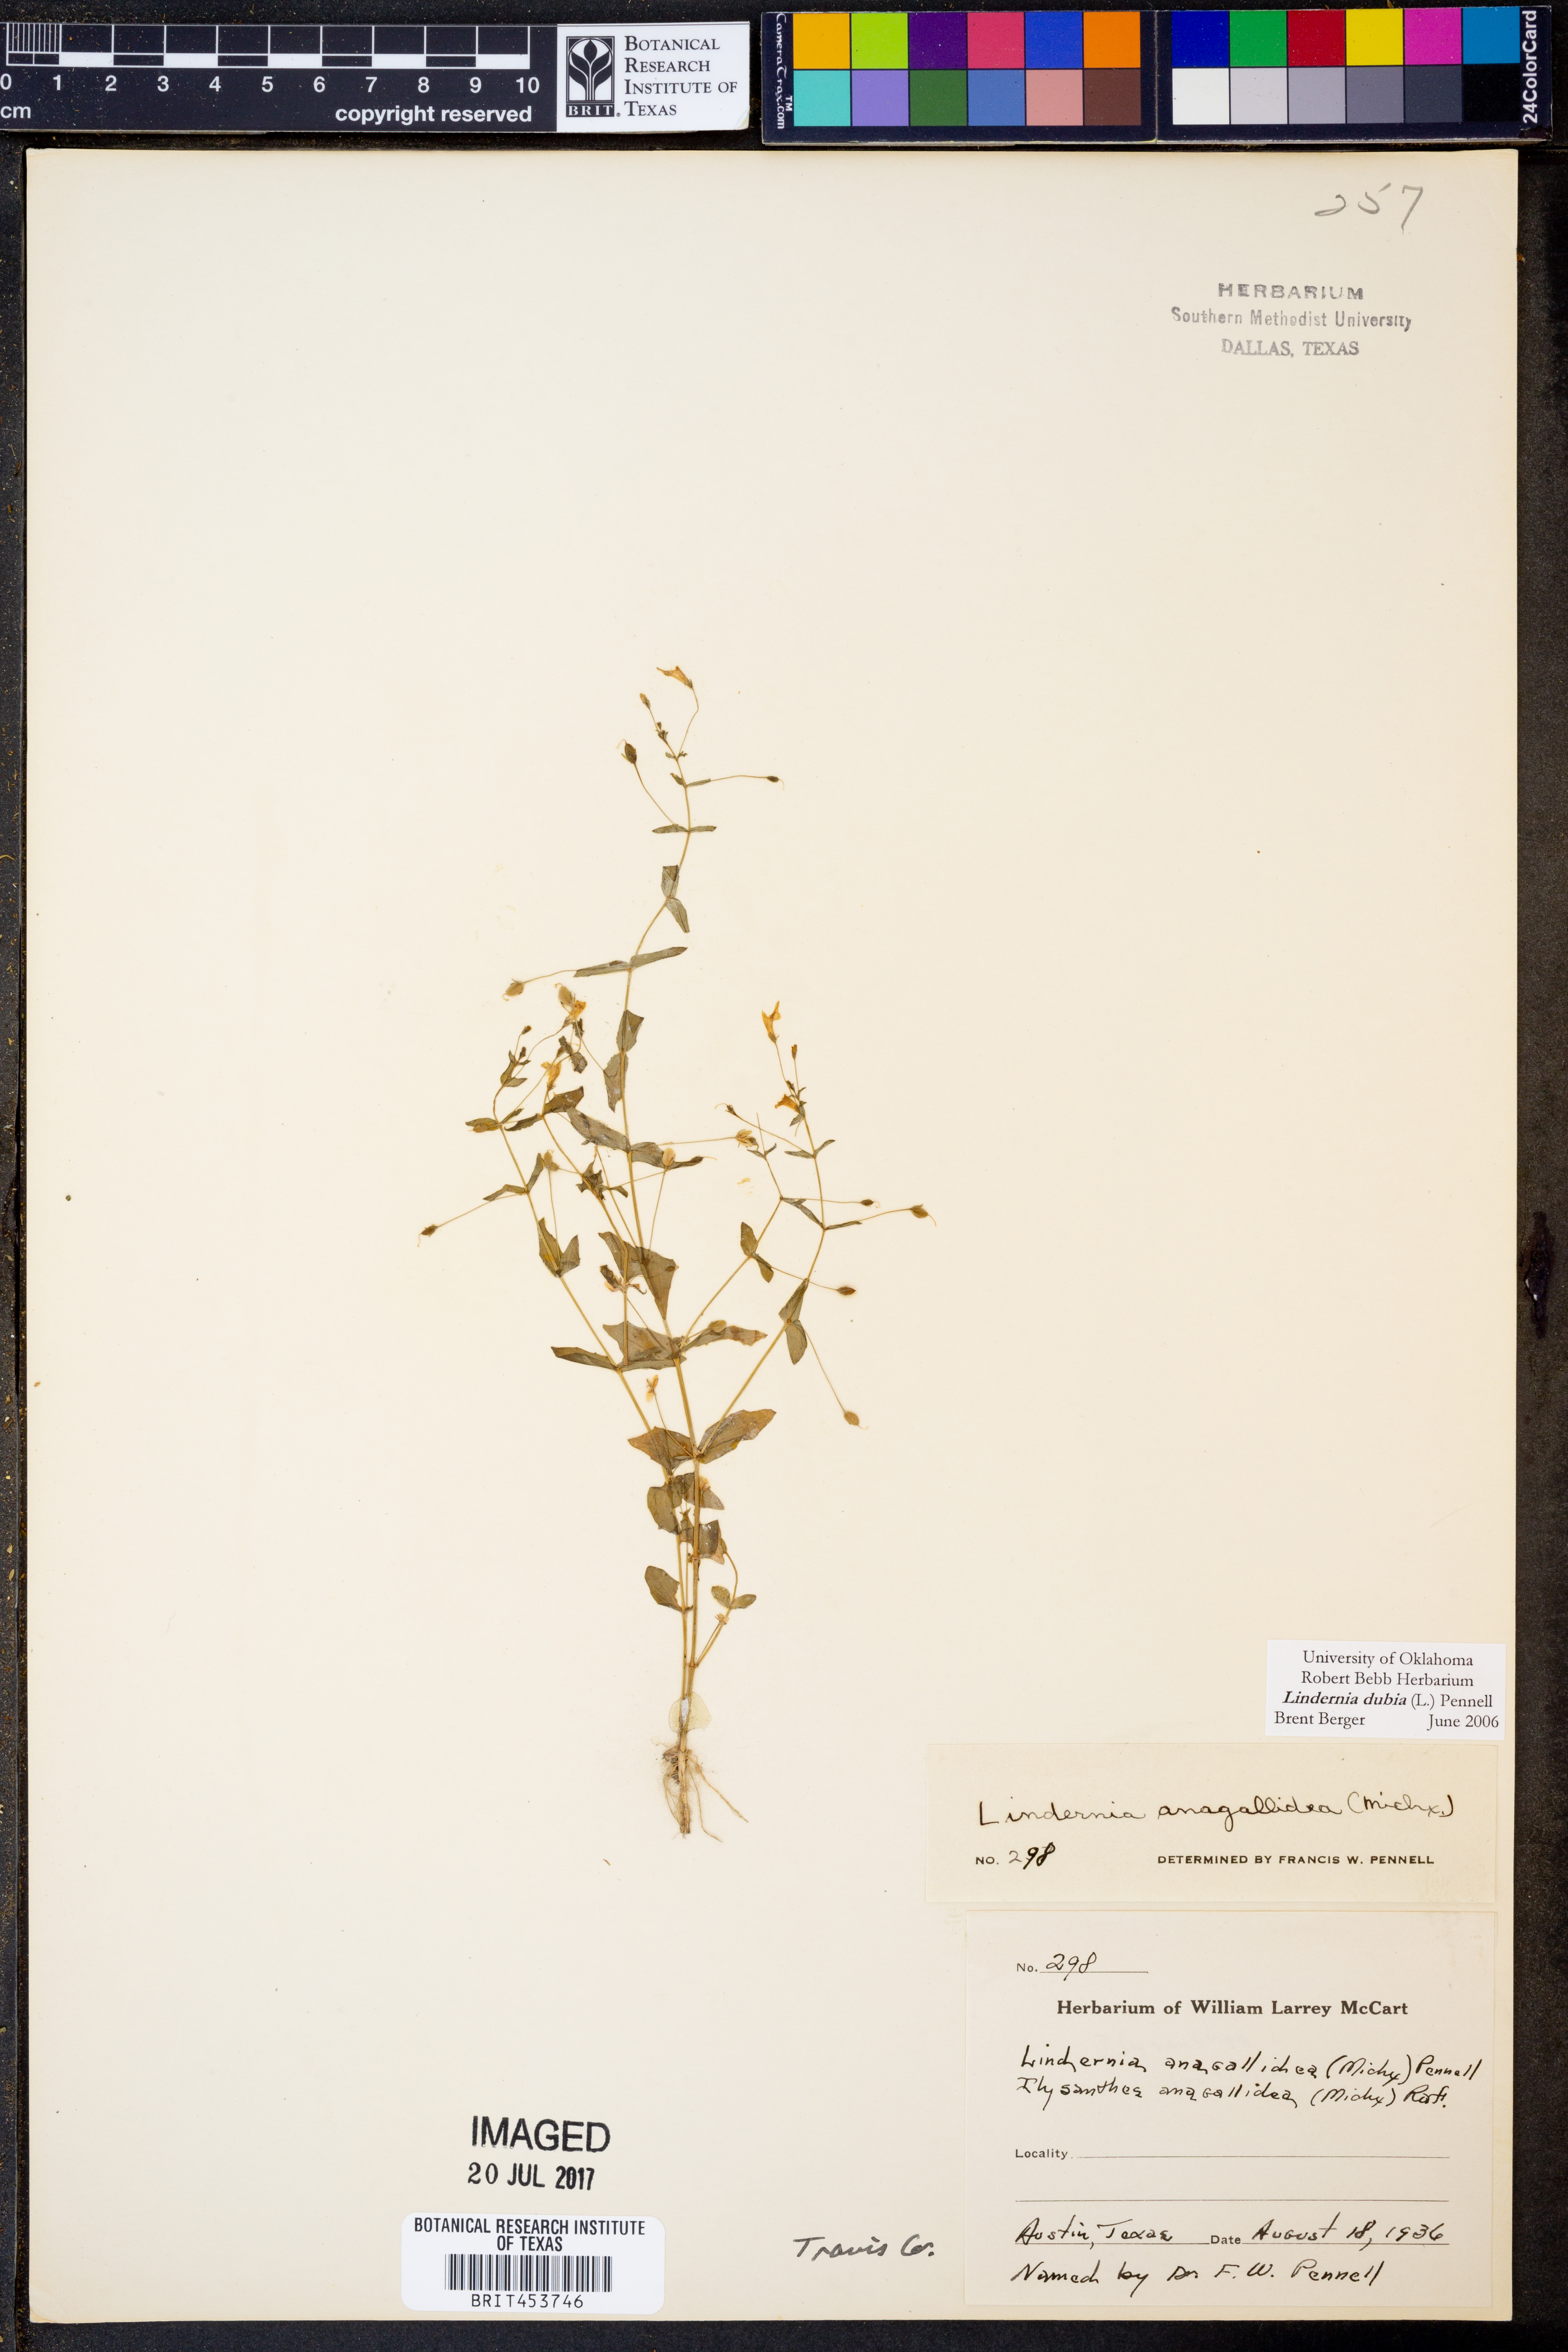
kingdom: Plantae
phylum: Tracheophyta
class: Magnoliopsida
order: Lamiales
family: Linderniaceae
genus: Lindernia
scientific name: Lindernia dubia
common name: Annual false pimpernel
